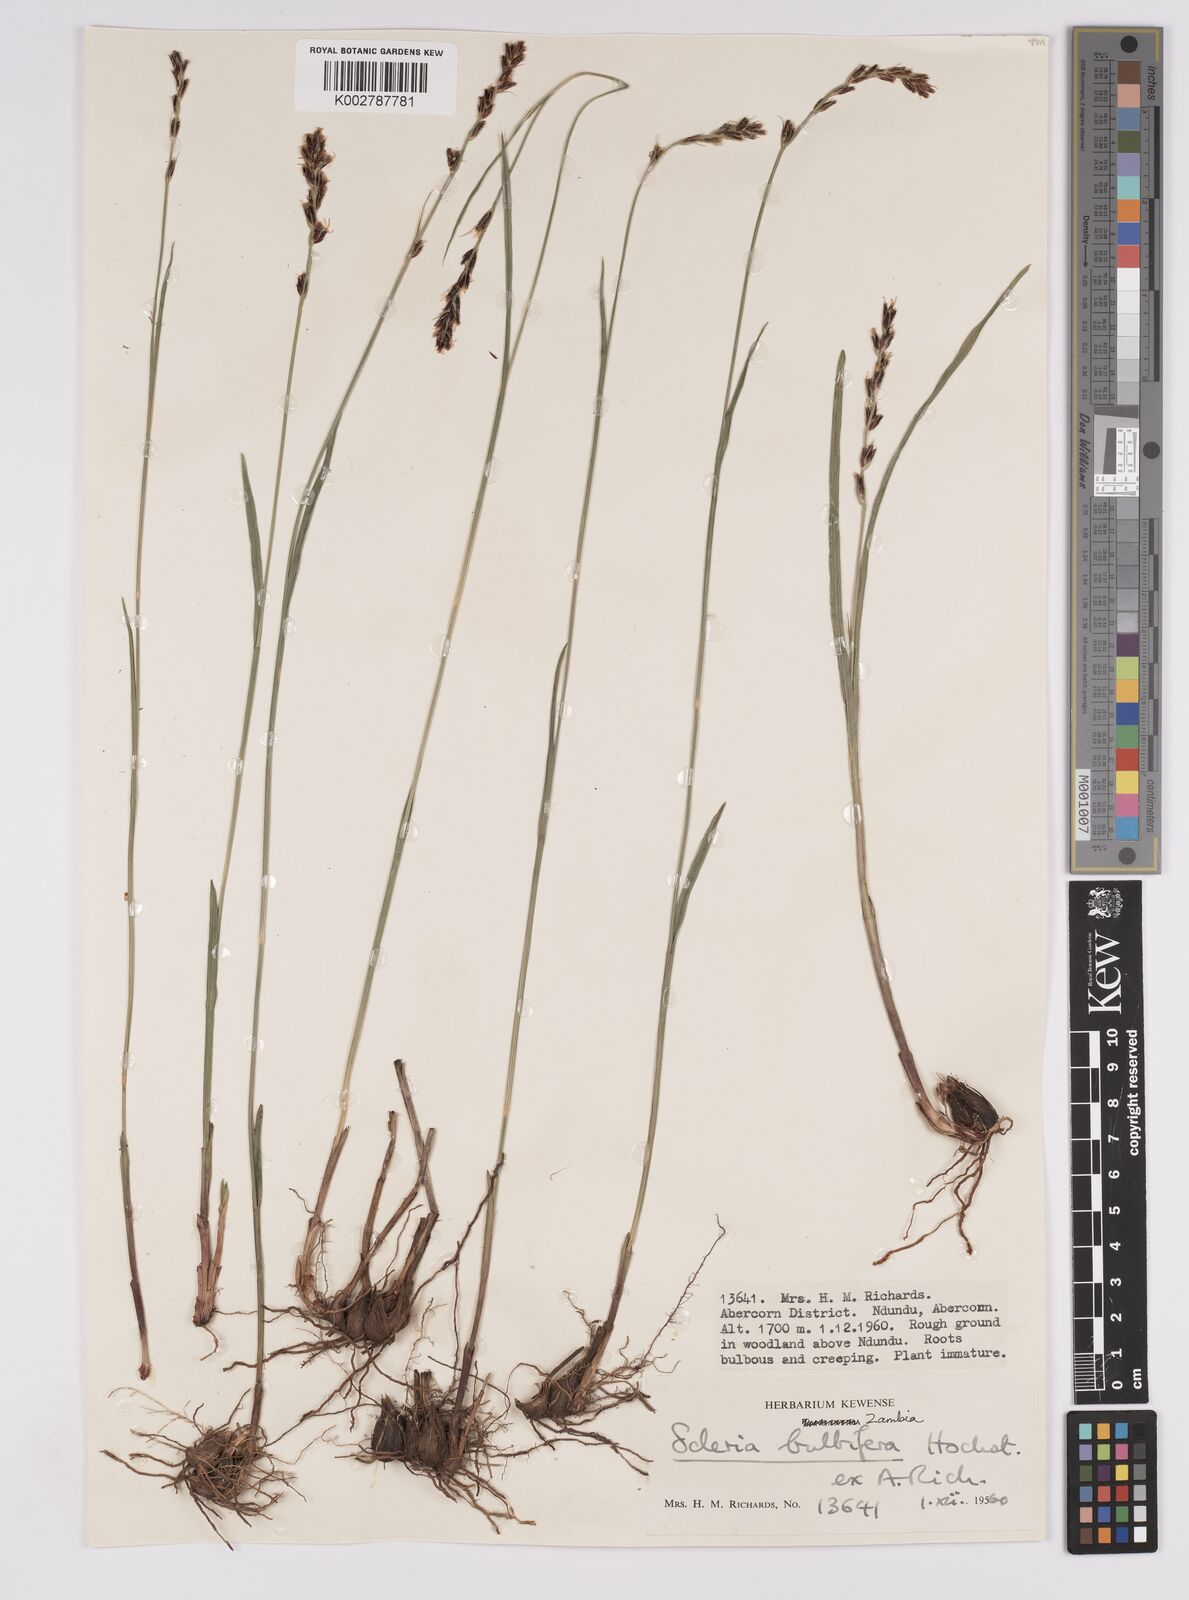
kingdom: Plantae
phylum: Tracheophyta
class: Liliopsida
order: Poales
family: Cyperaceae
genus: Scleria
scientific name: Scleria bulbifera
